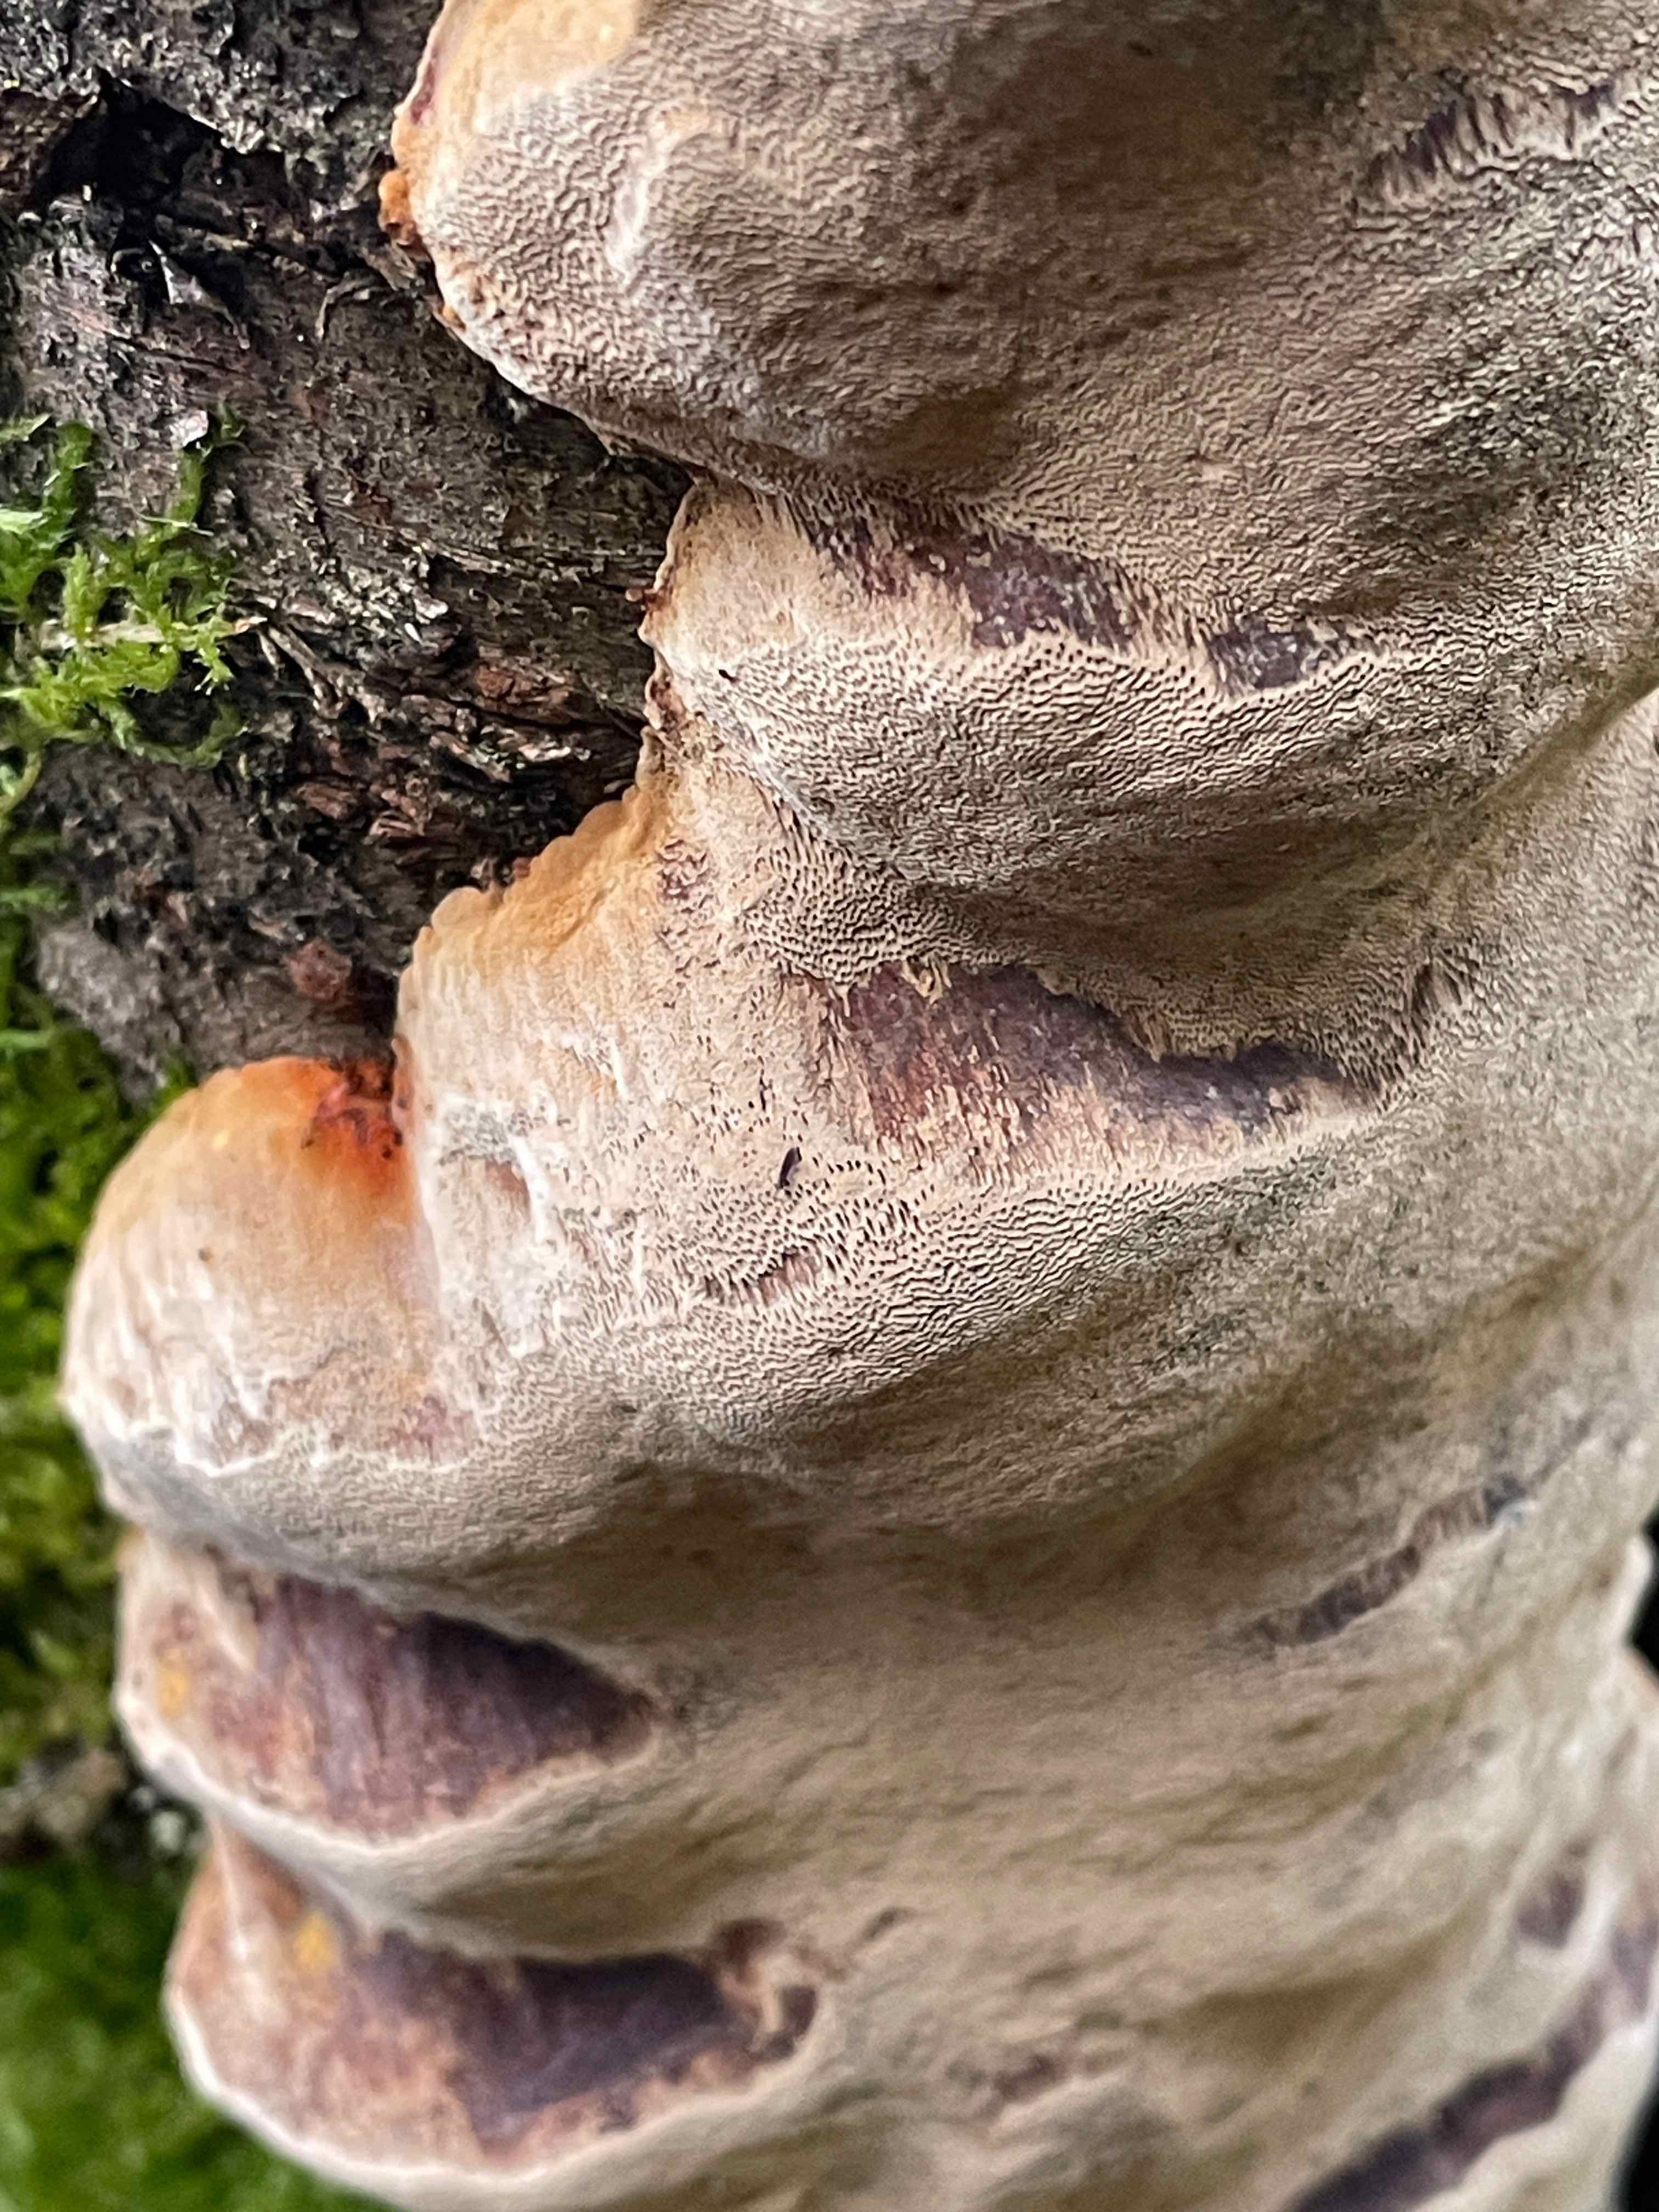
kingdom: Fungi
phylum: Basidiomycota
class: Agaricomycetes
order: Hymenochaetales
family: Hymenochaetaceae
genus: Phellinus
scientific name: Phellinus pomaceus
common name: blomme-ildporesvamp
